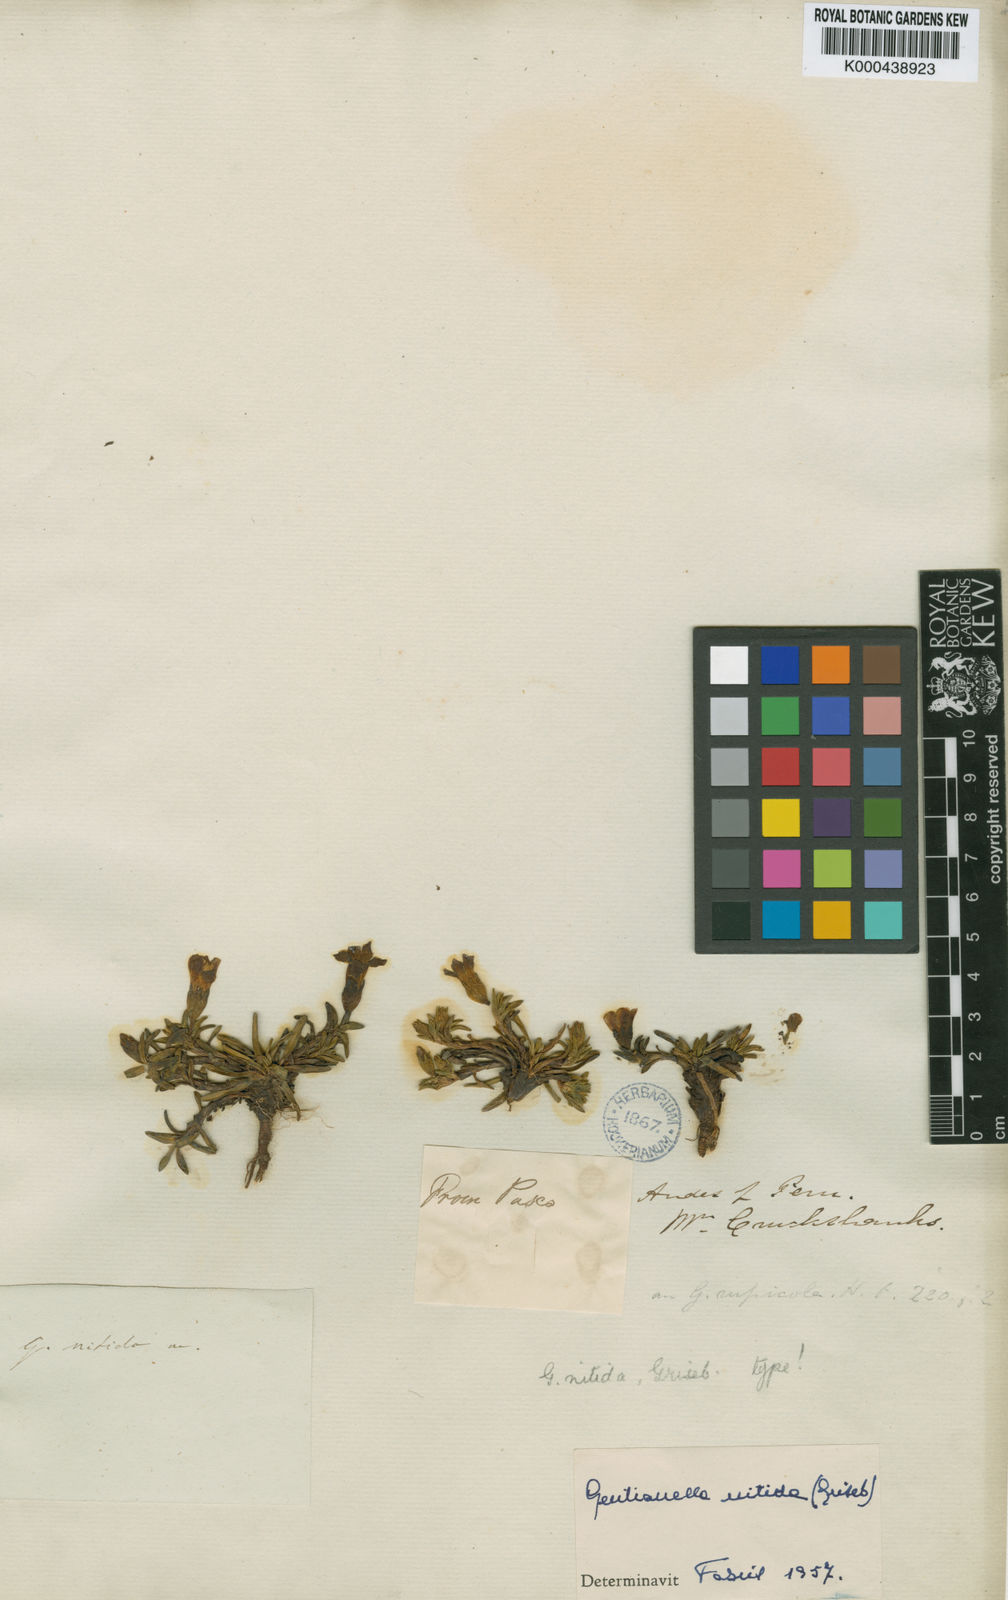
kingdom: Plantae
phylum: Tracheophyta
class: Magnoliopsida
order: Gentianales
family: Gentianaceae
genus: Gentianella
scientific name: Gentianella nitida
